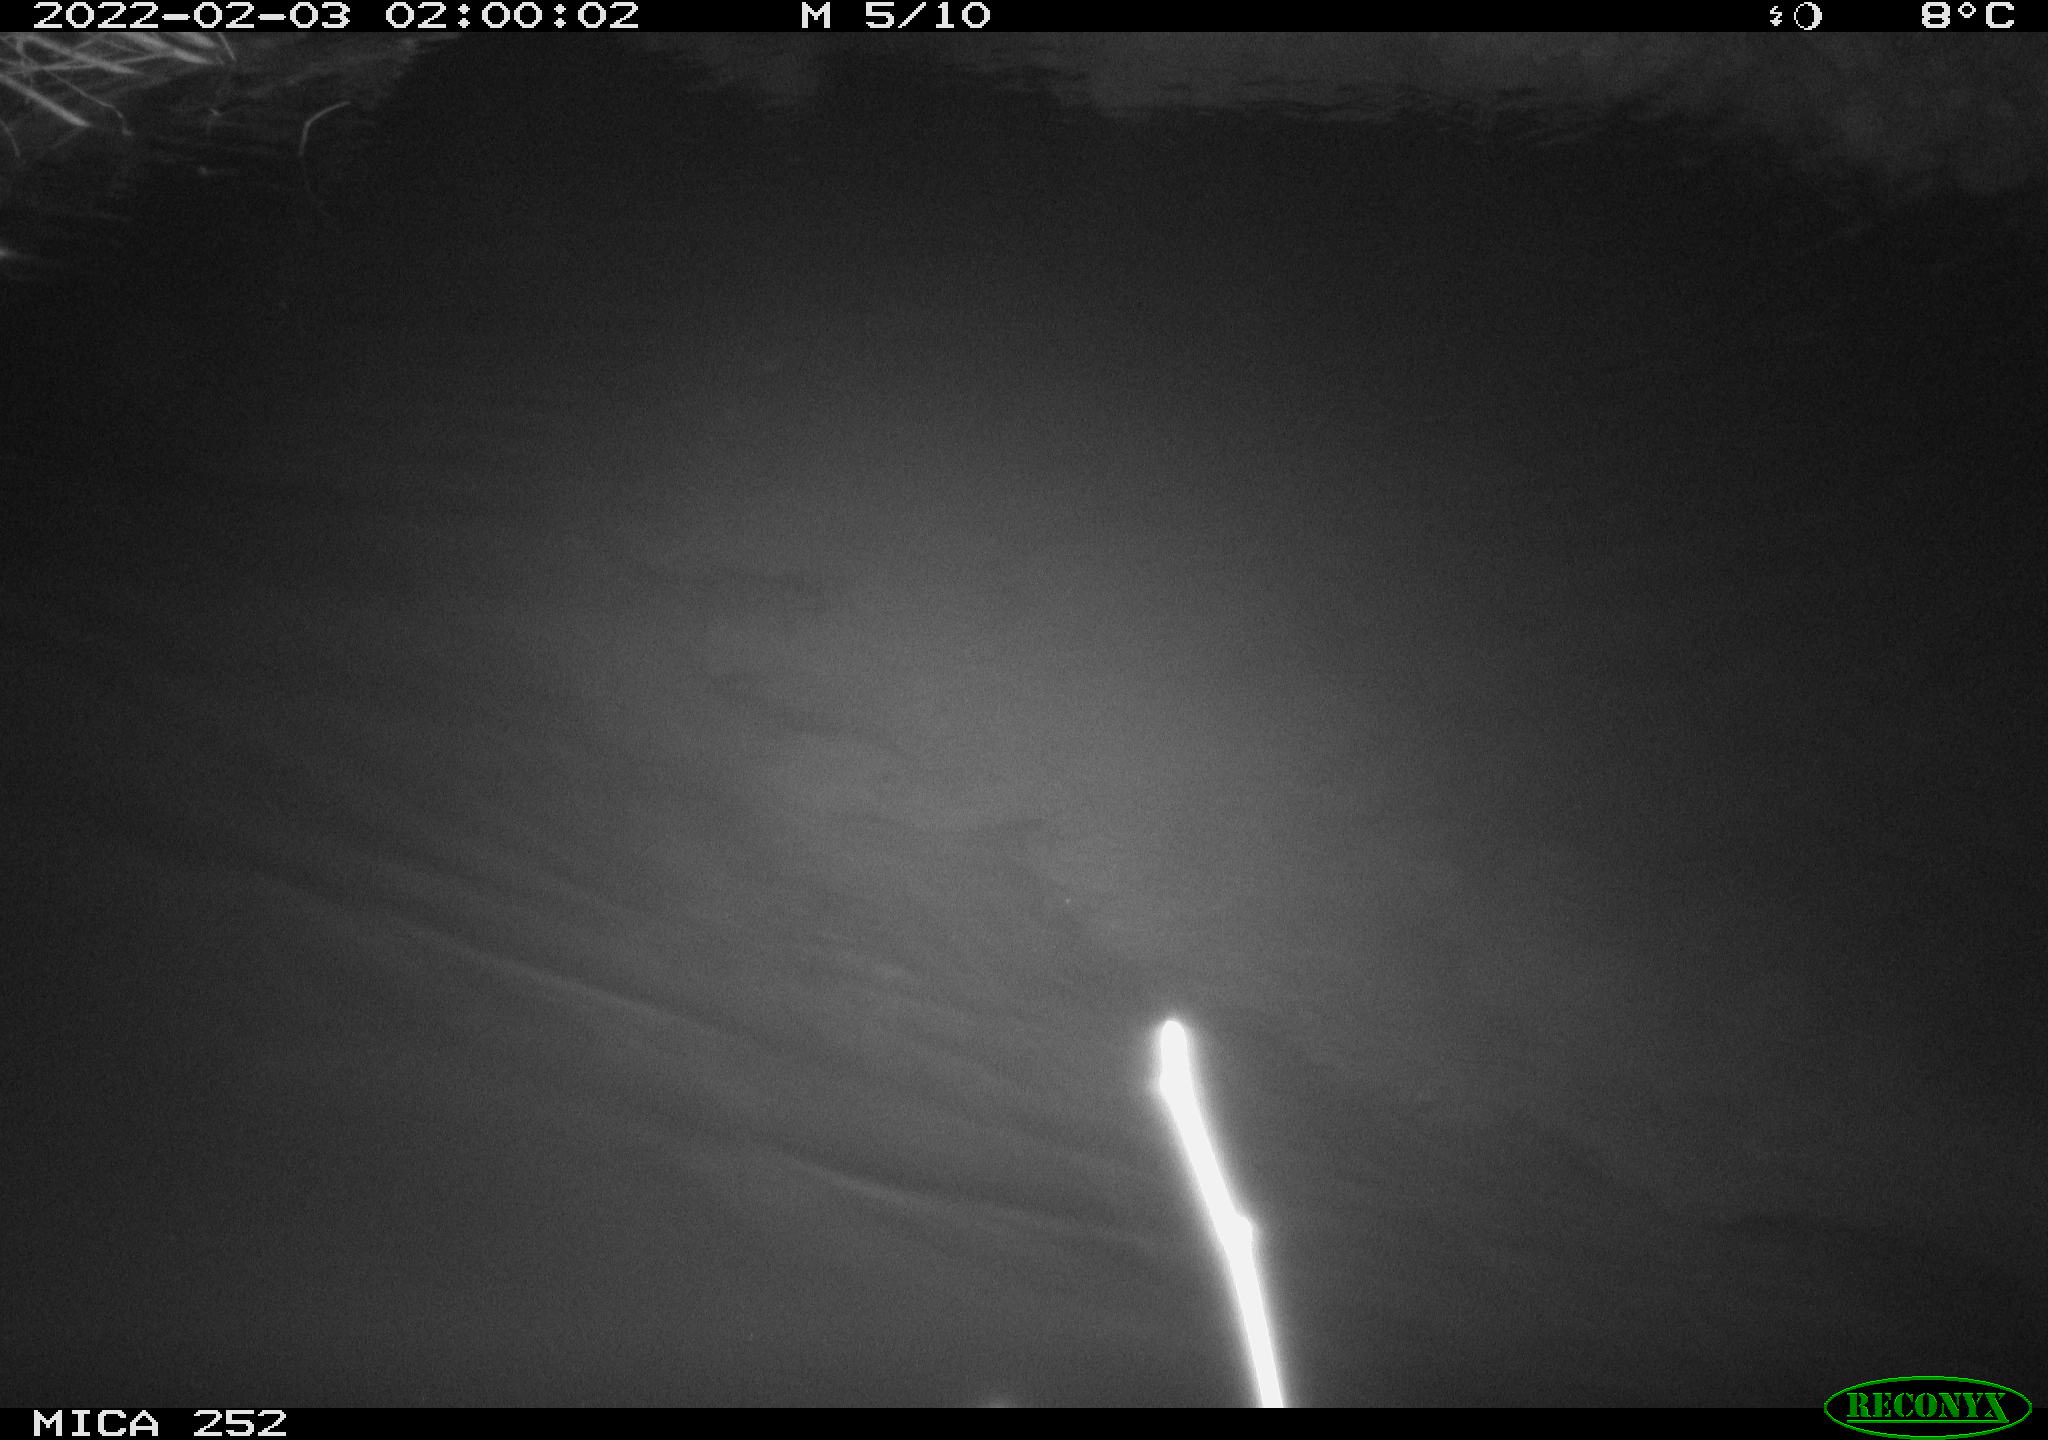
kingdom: Animalia
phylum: Chordata
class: Mammalia
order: Rodentia
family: Castoridae
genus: Castor
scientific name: Castor fiber
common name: Eurasian beaver
